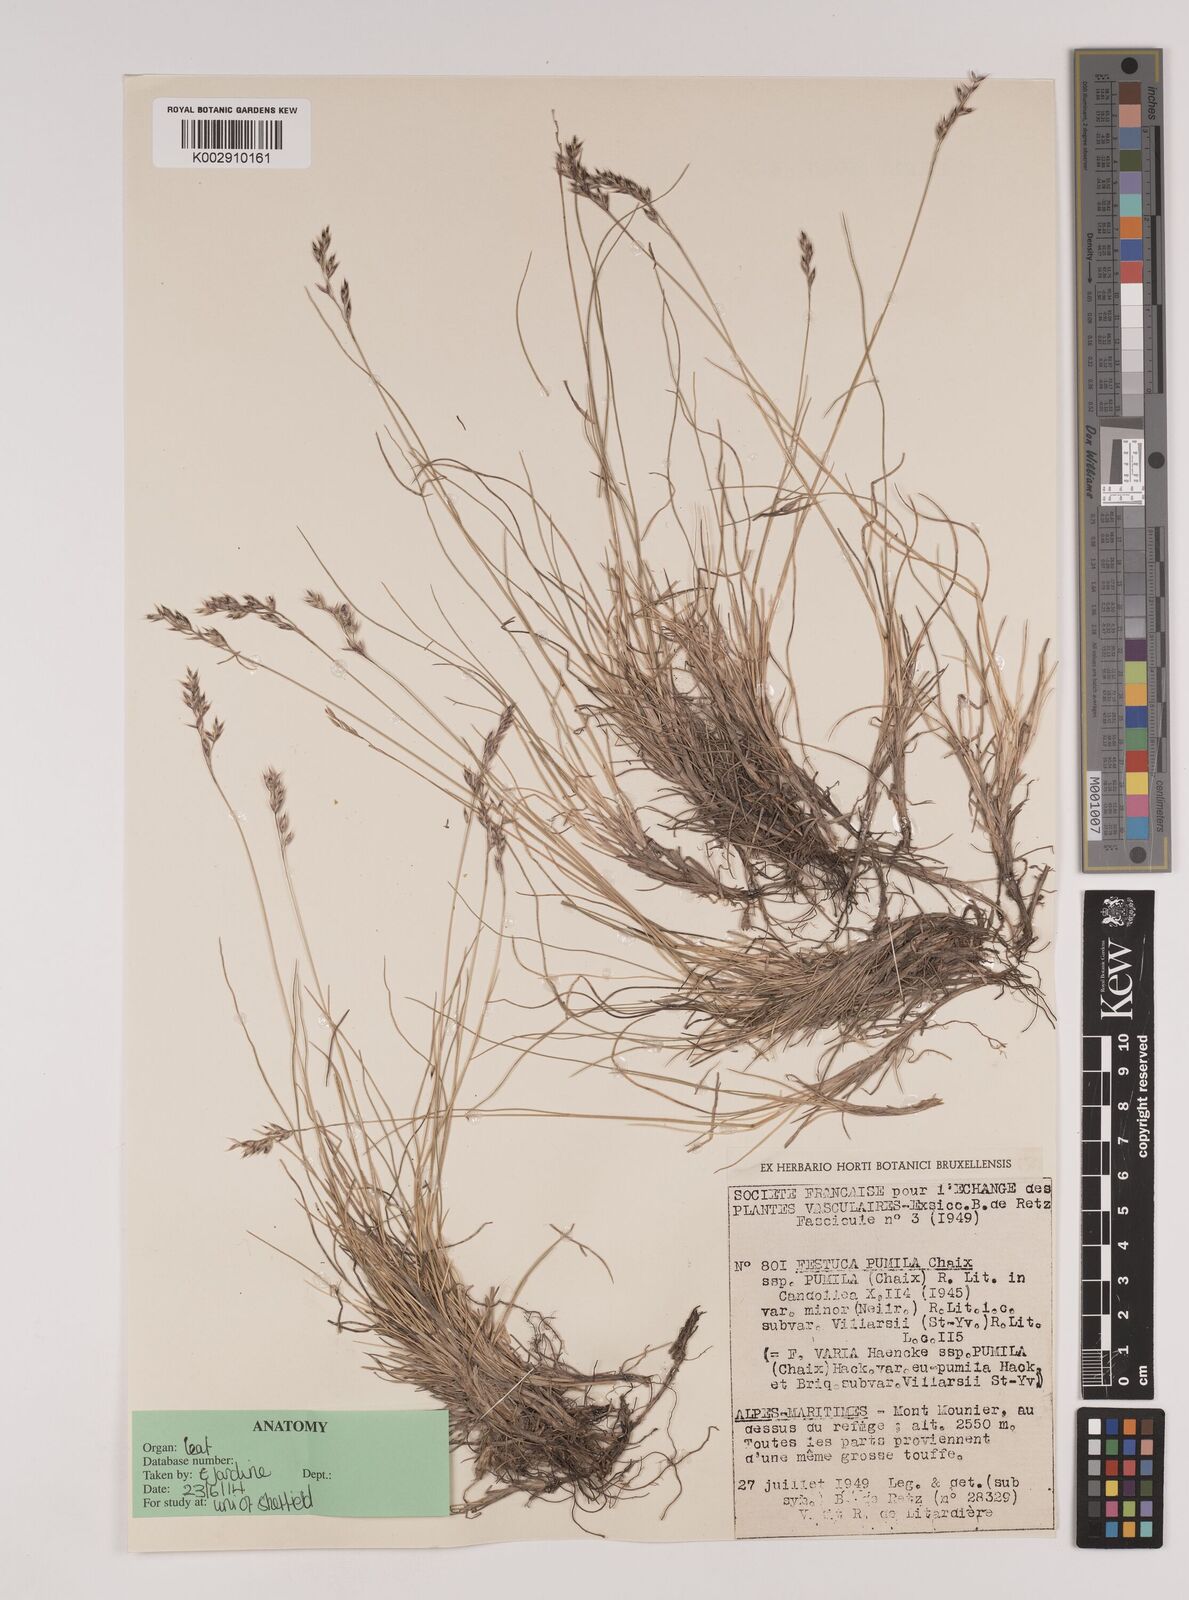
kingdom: Plantae
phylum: Tracheophyta
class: Liliopsida
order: Poales
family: Poaceae
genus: Festuca
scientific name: Festuca
